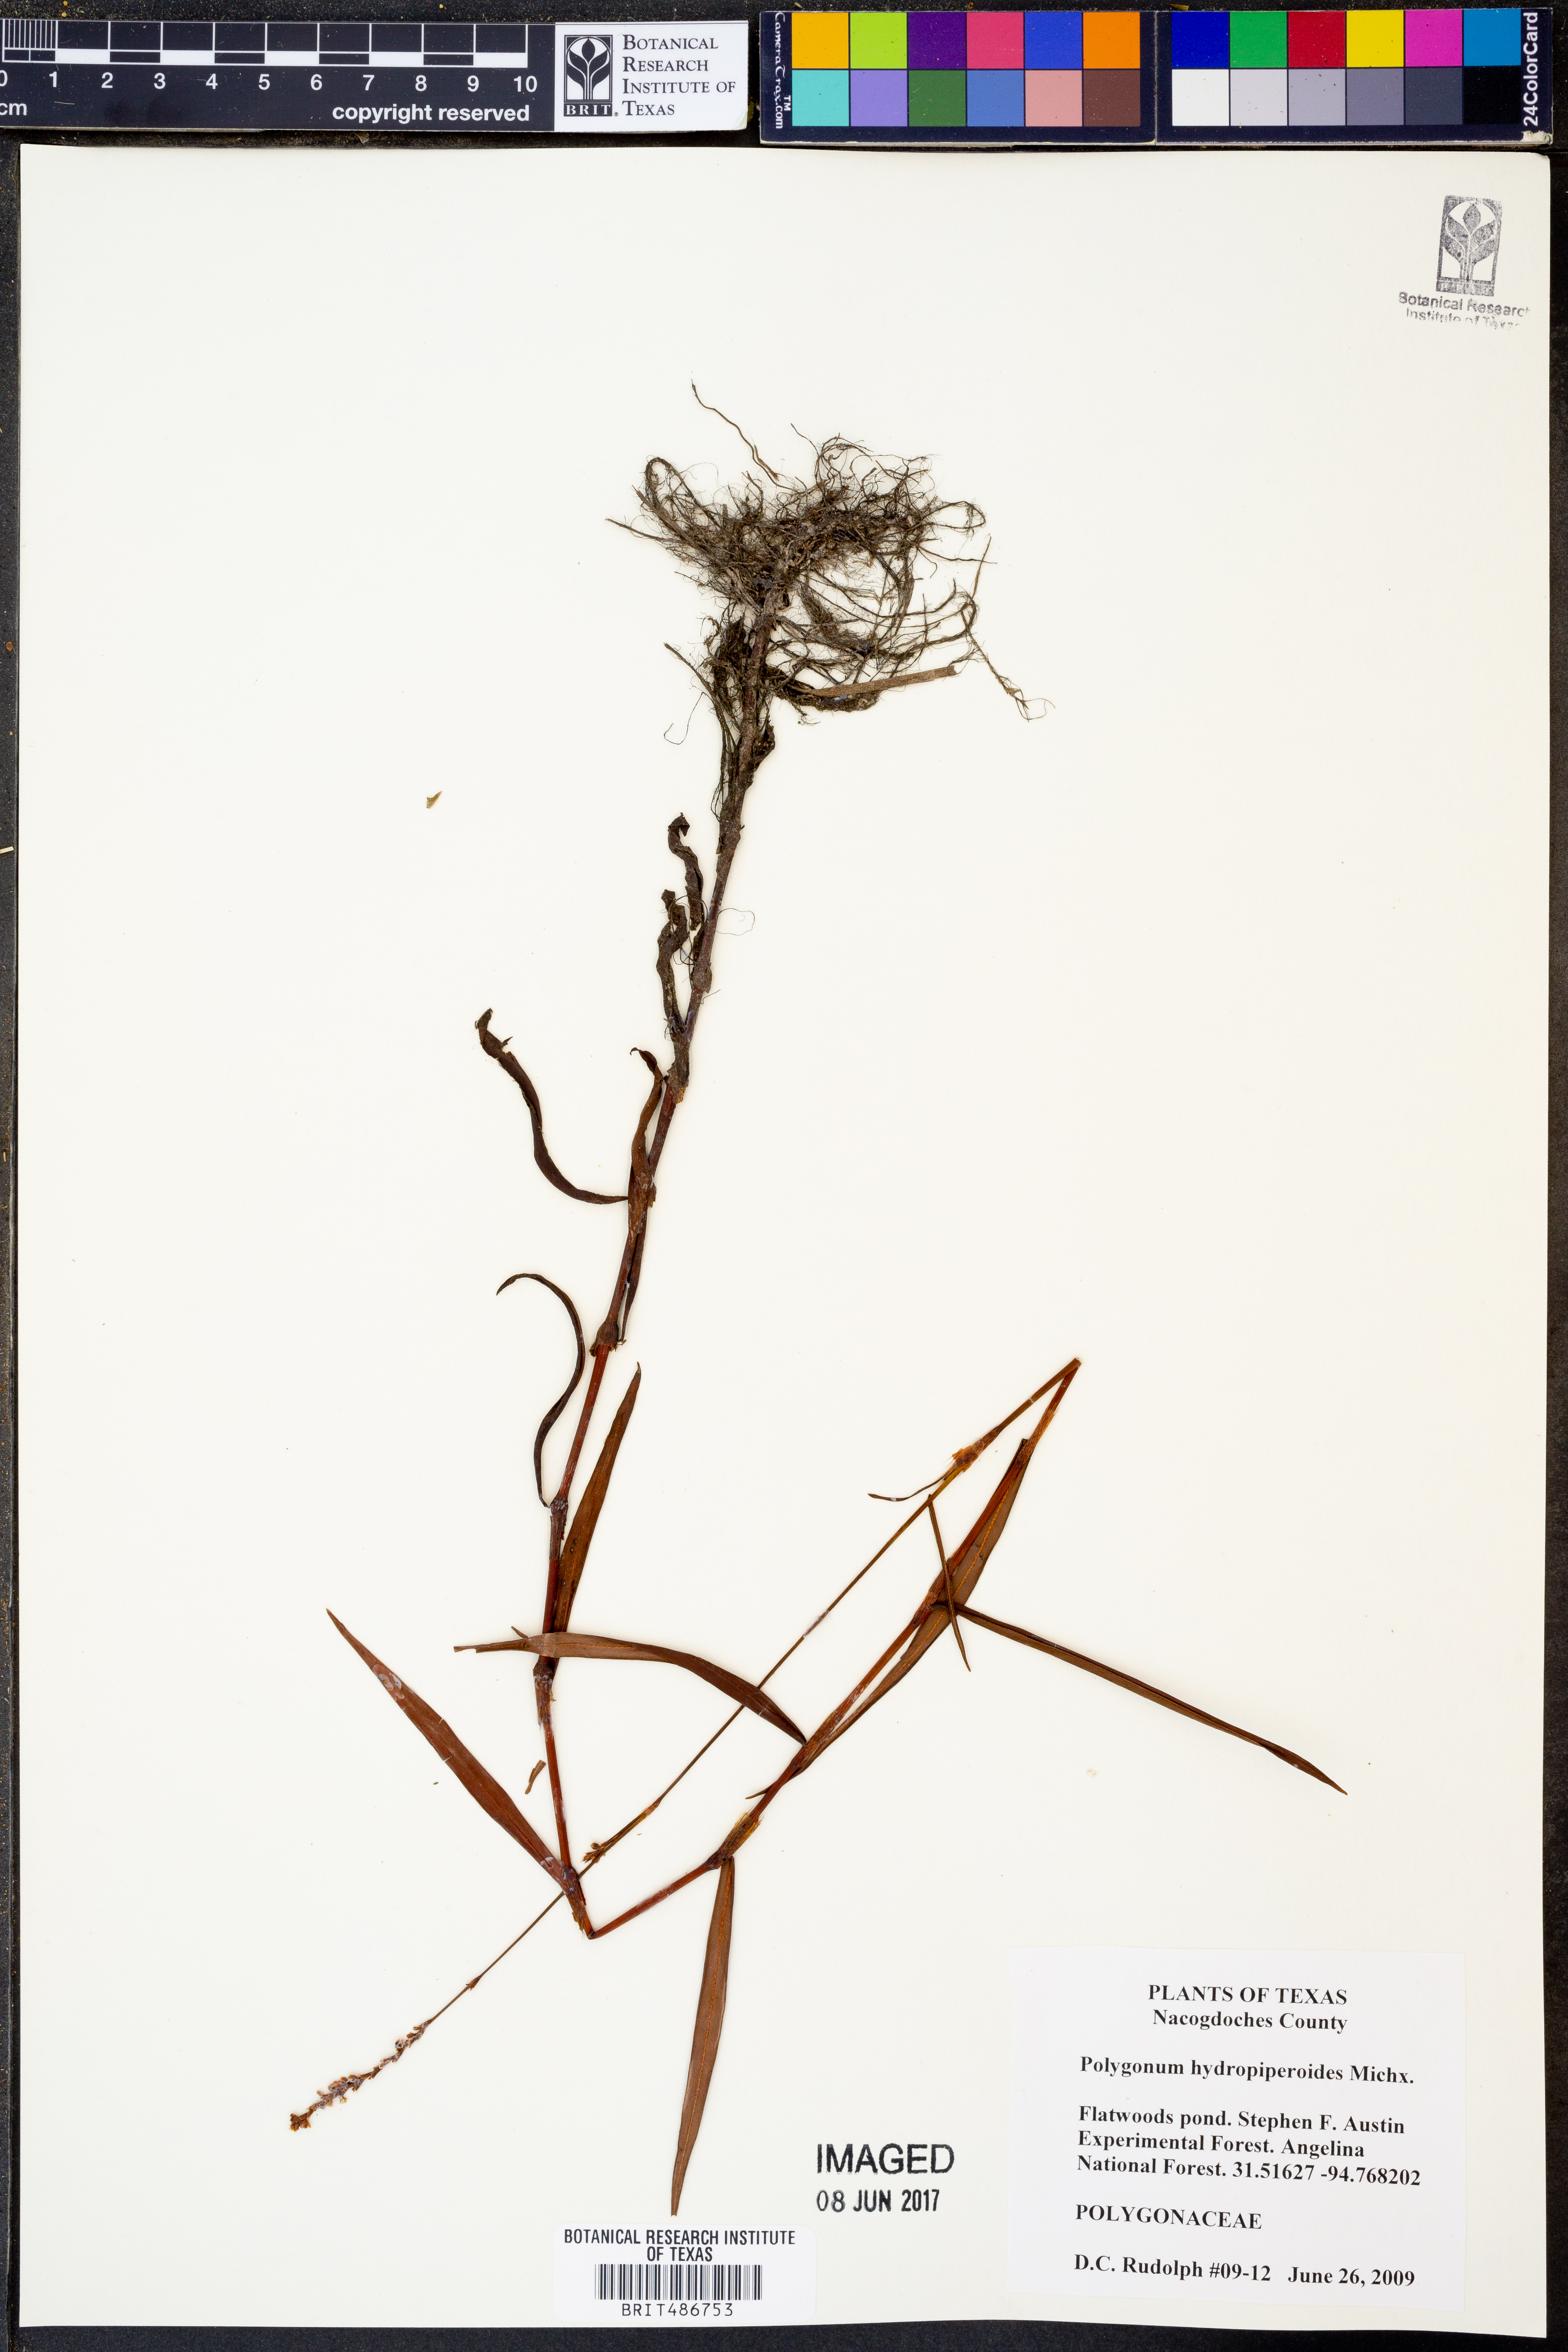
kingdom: Plantae
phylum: Tracheophyta
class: Magnoliopsida
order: Caryophyllales
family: Polygonaceae
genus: Persicaria
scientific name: Persicaria hydropiperoides
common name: Swamp smartweed
